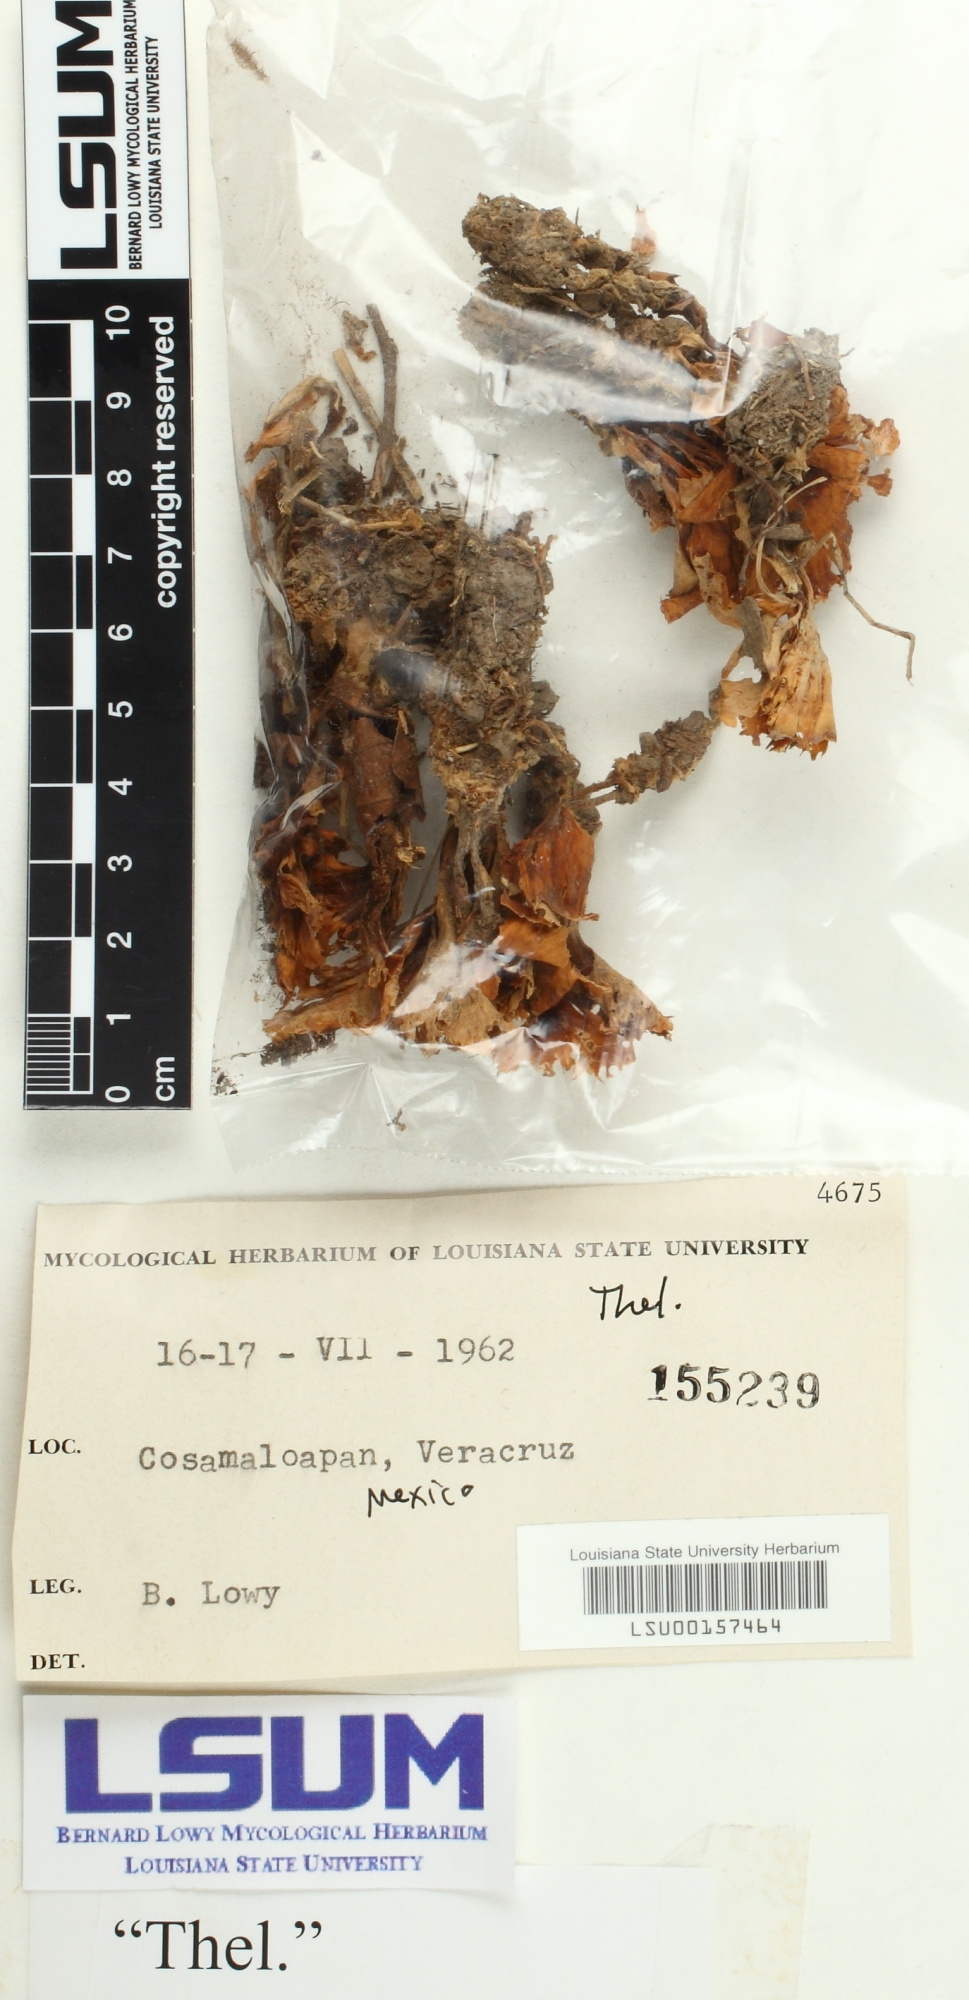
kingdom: Fungi
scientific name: Fungi
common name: Fungi
